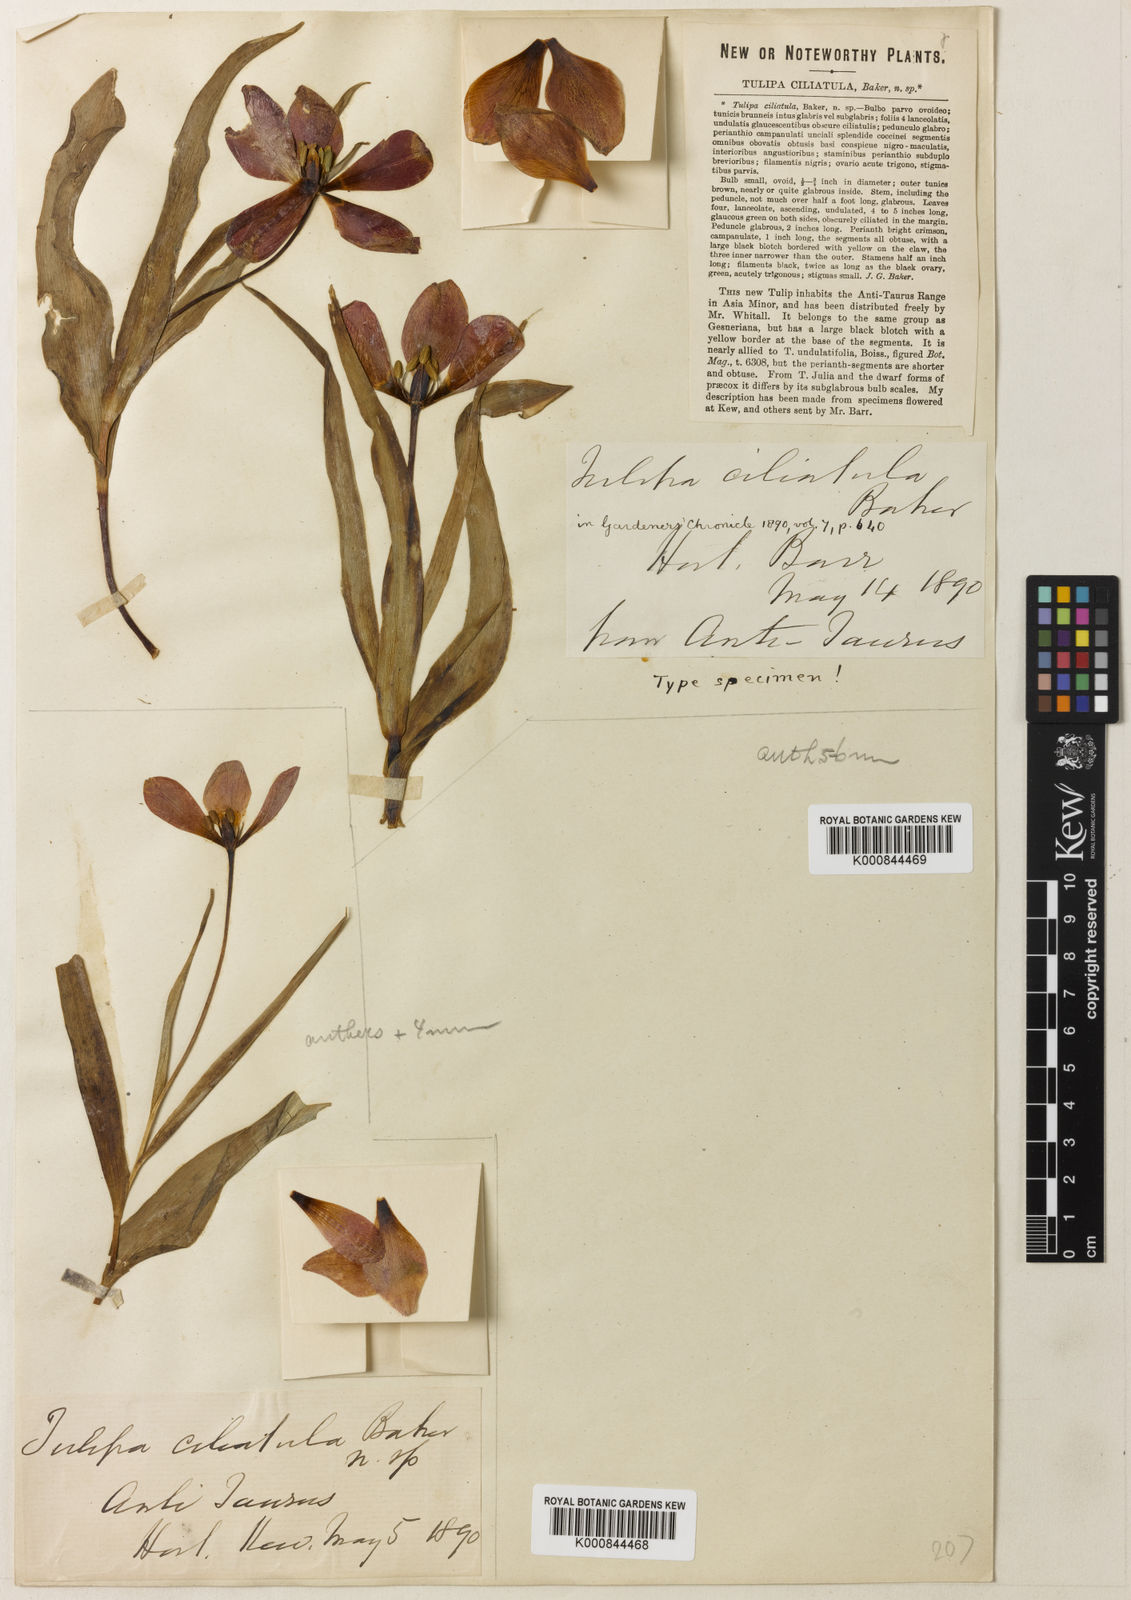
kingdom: Plantae
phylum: Tracheophyta
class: Liliopsida
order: Liliales
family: Liliaceae
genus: Tulipa
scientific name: Tulipa foliosa
